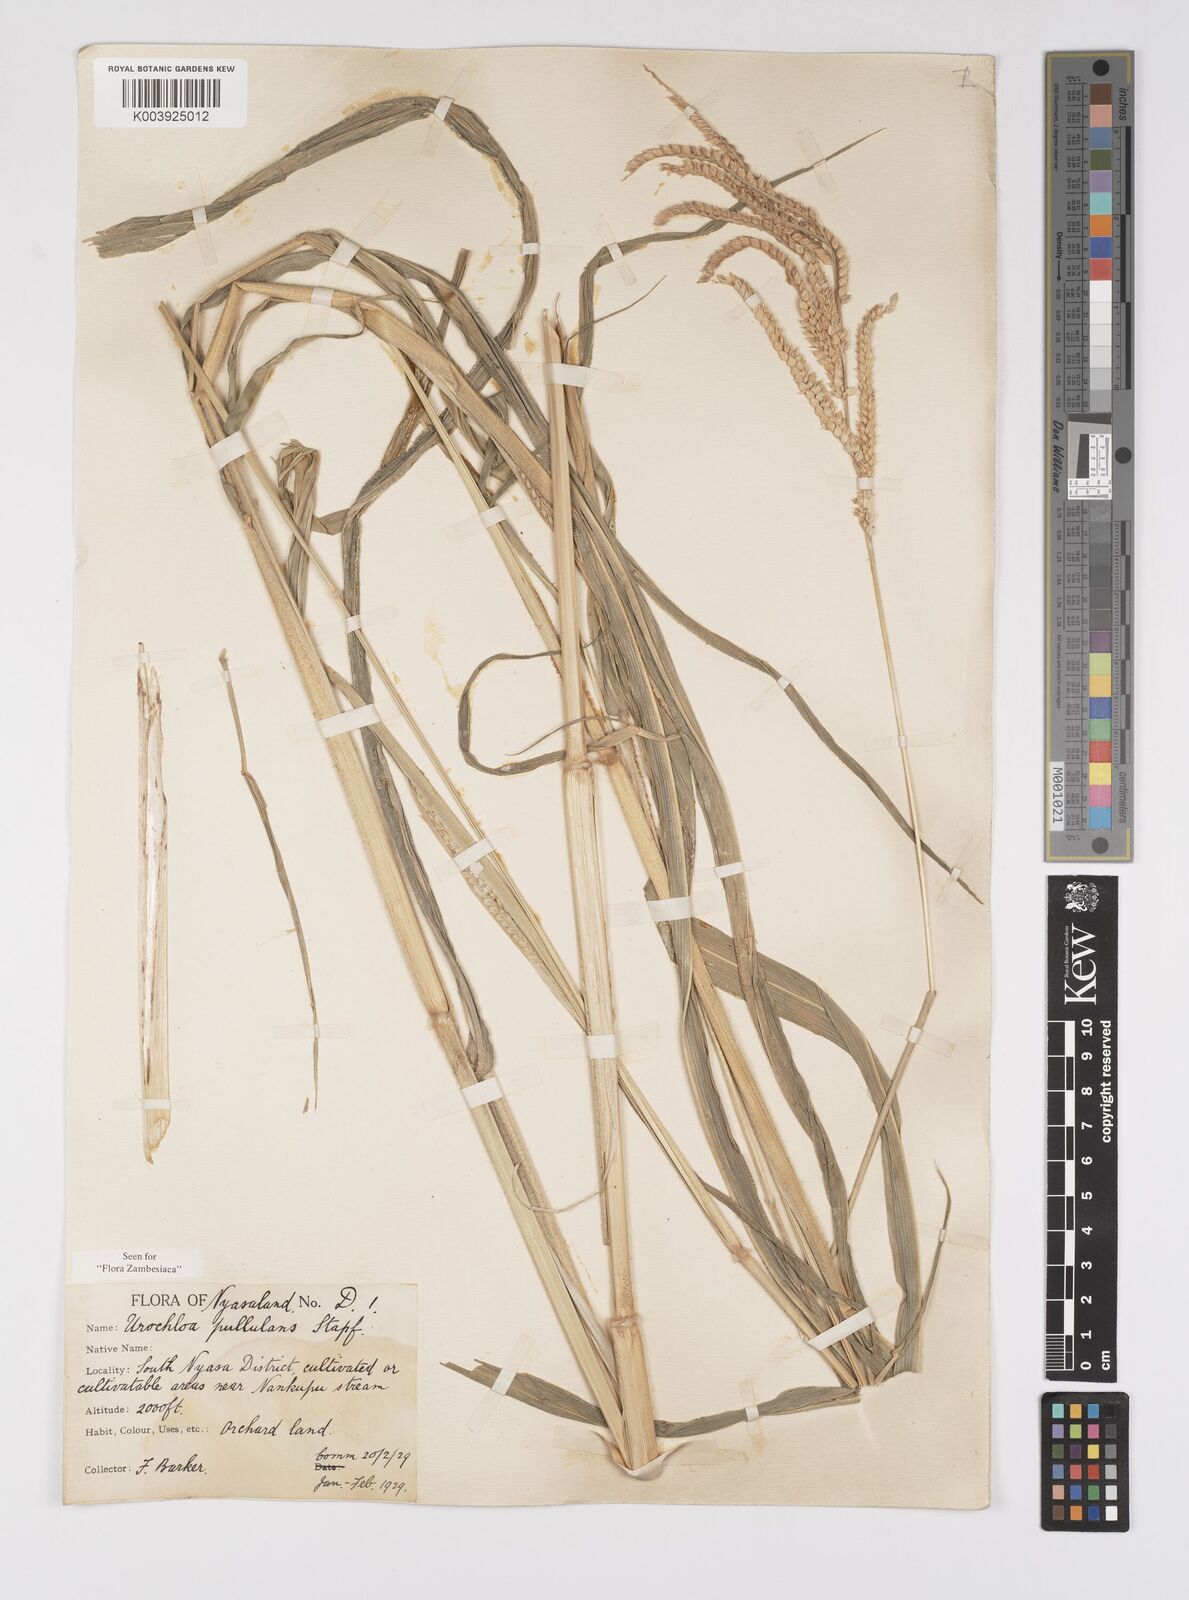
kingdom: Plantae
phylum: Tracheophyta
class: Liliopsida
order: Poales
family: Poaceae
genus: Urochloa
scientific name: Urochloa trichopus
